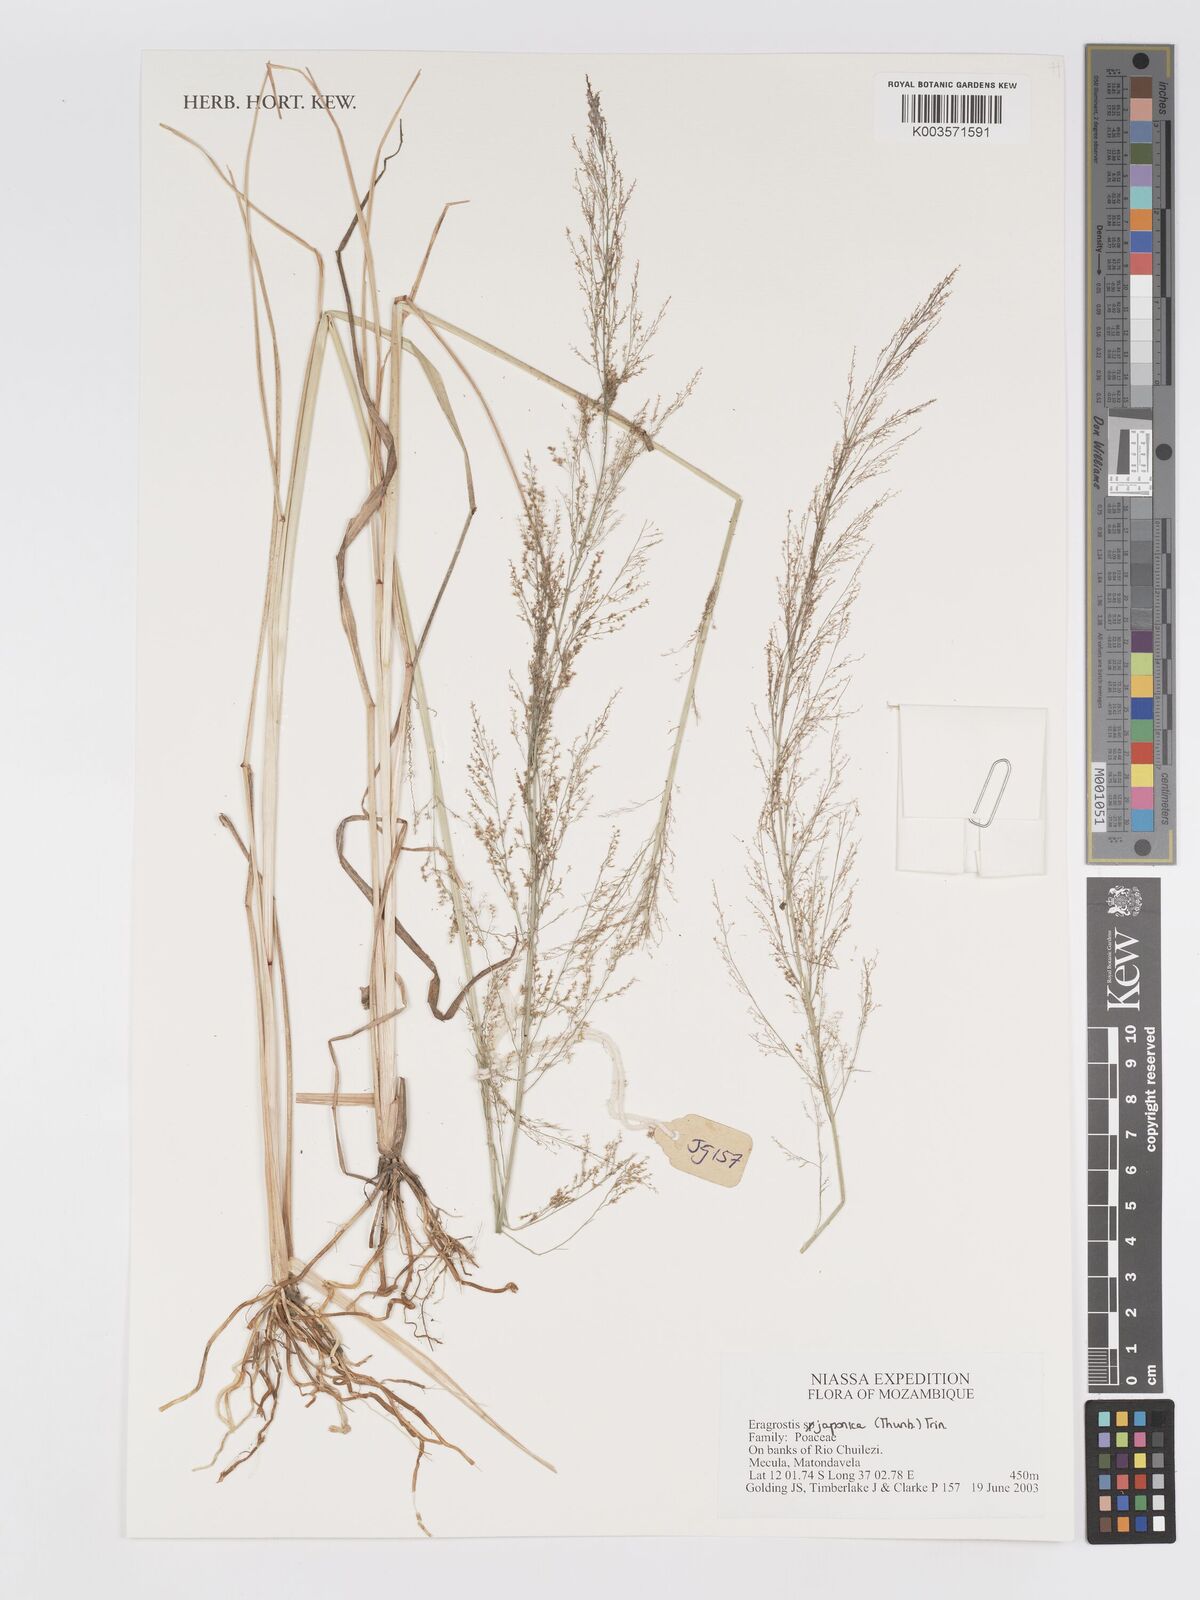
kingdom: Plantae
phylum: Tracheophyta
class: Liliopsida
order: Poales
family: Poaceae
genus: Eragrostis
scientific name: Eragrostis japonica
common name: Pond lovegrass
